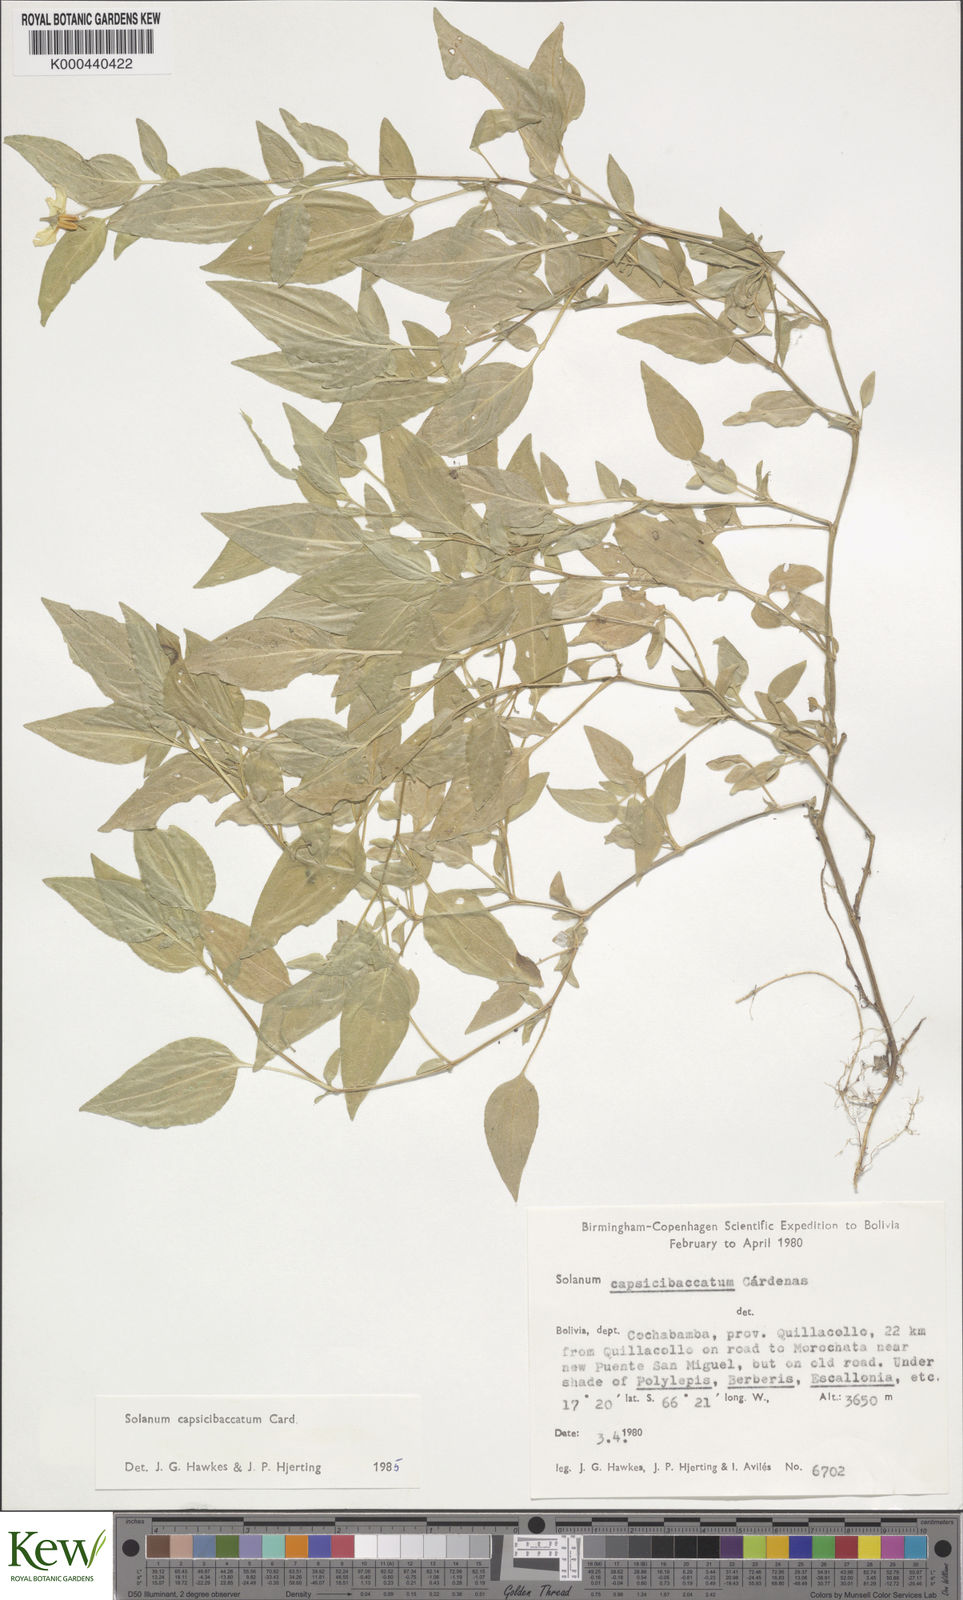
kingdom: Plantae
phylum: Tracheophyta
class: Magnoliopsida
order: Solanales
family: Solanaceae
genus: Solanum
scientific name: Solanum stipuloideum
